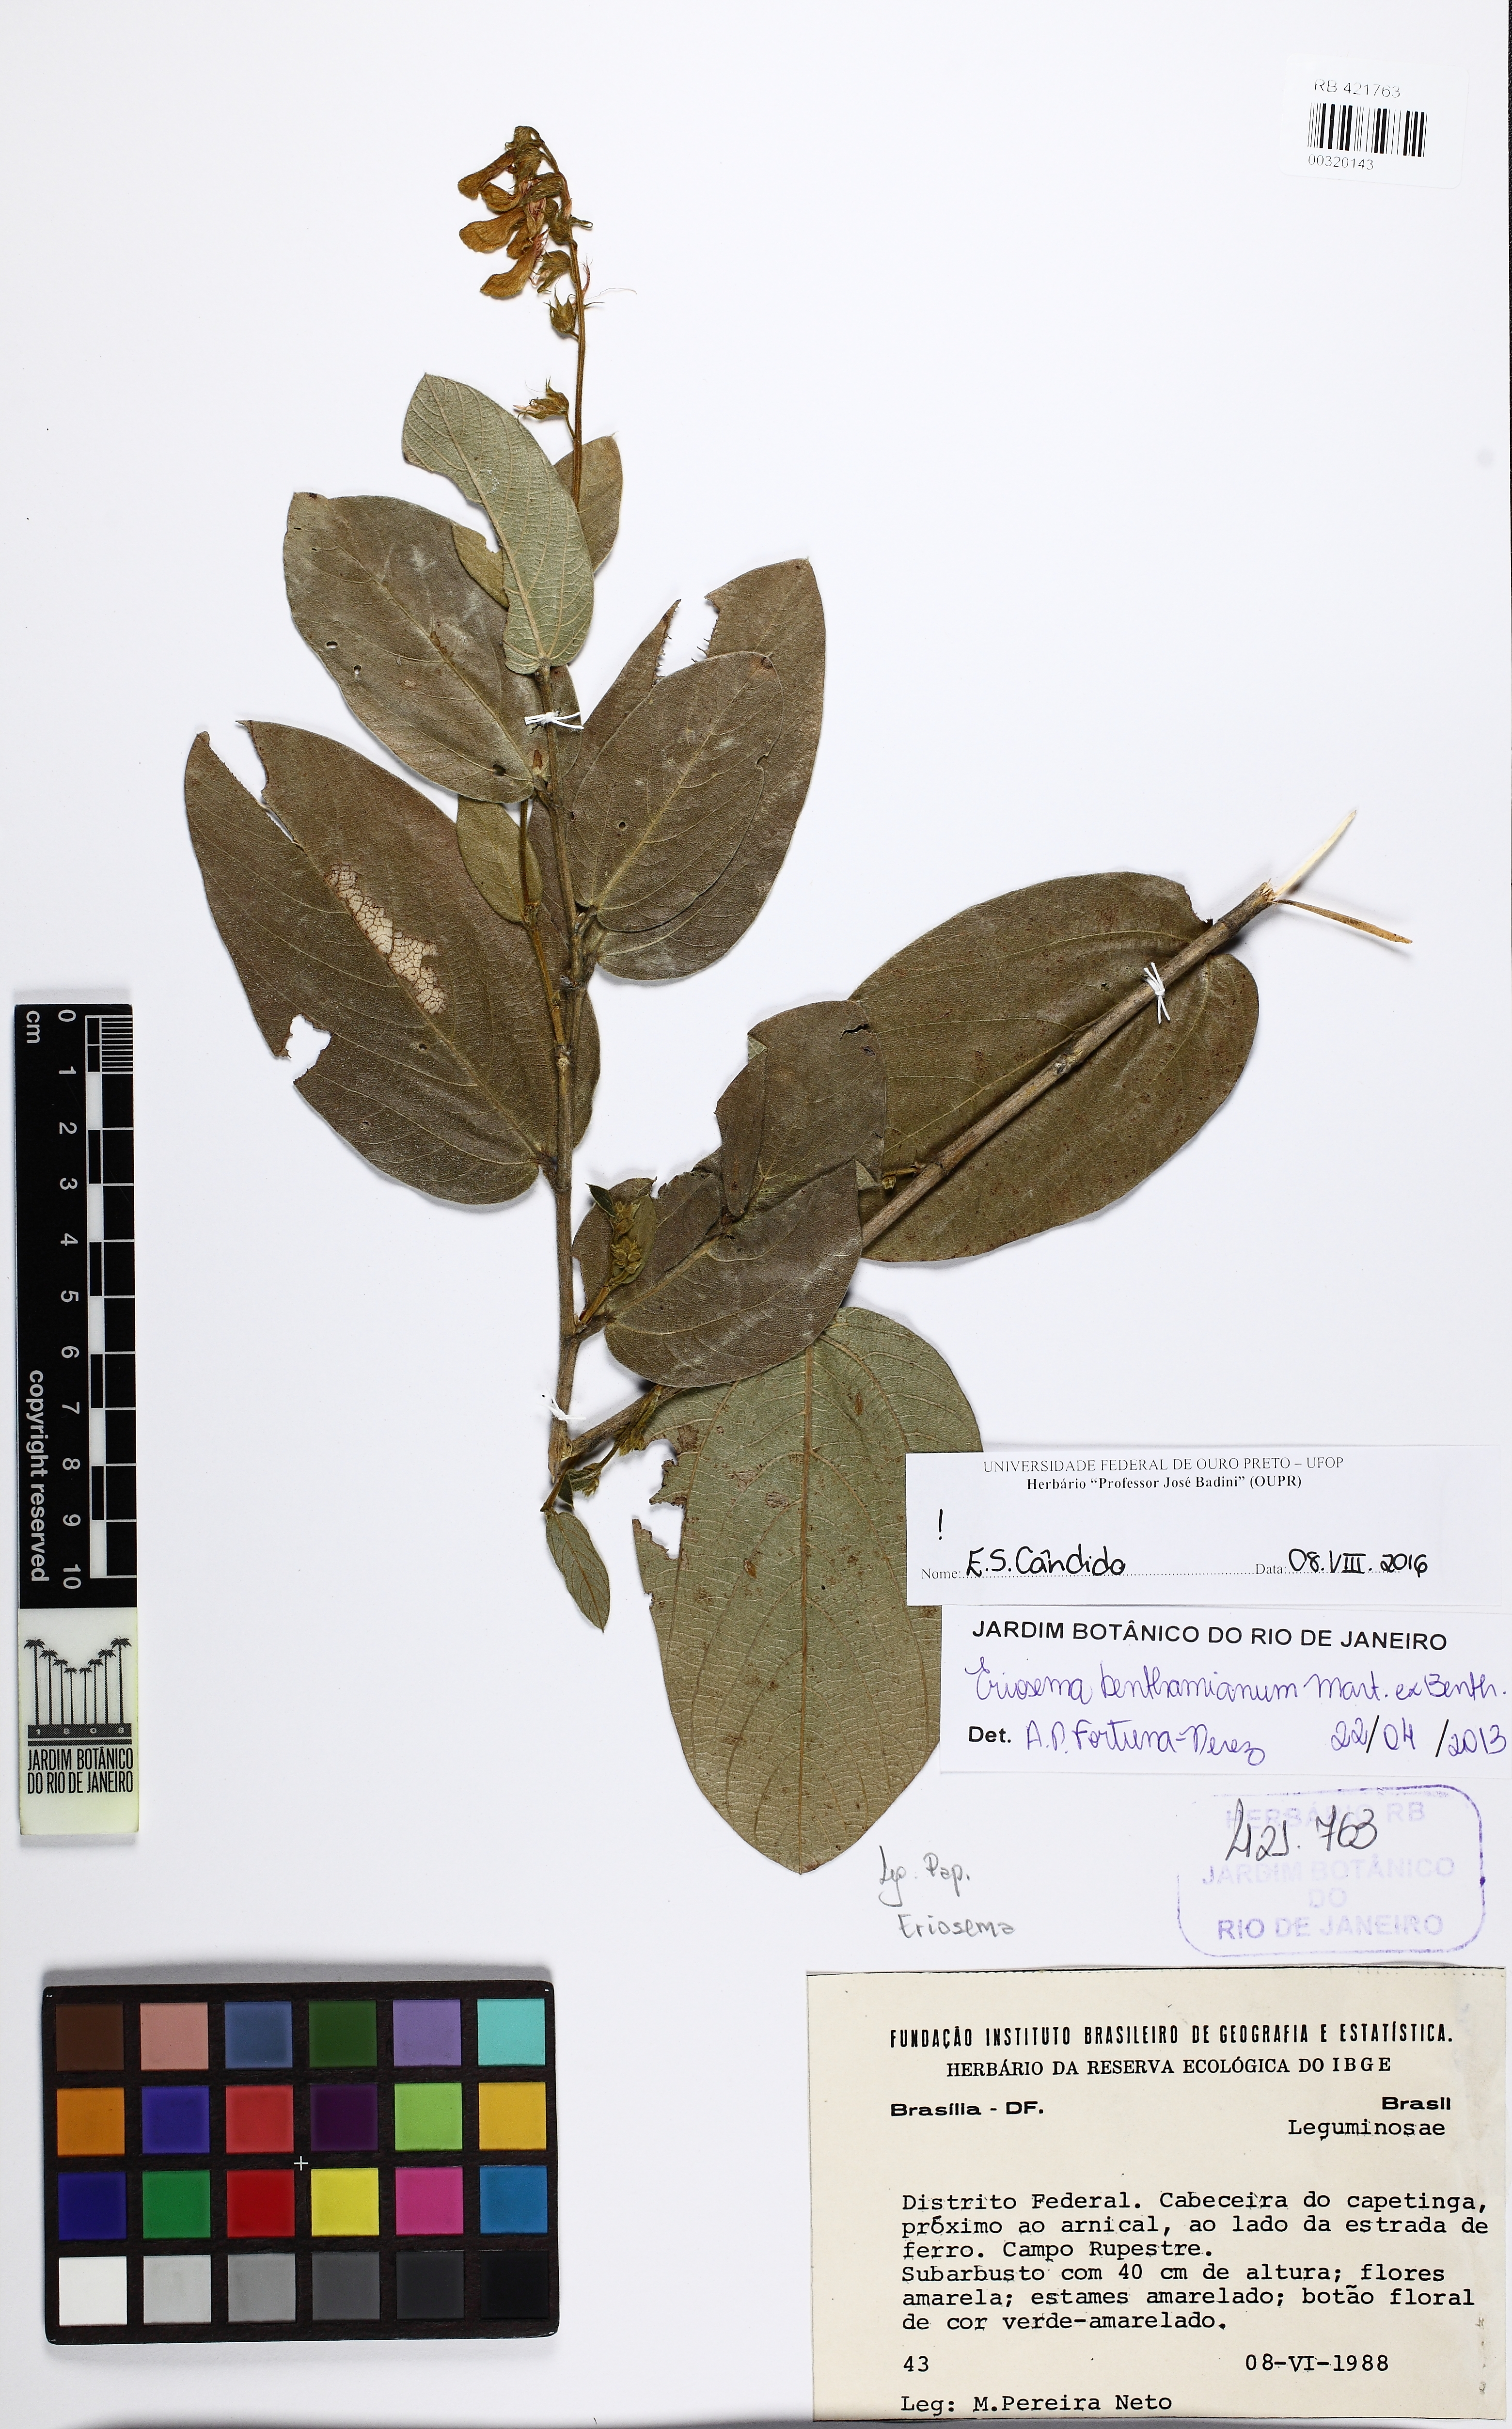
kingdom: Plantae
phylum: Tracheophyta
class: Magnoliopsida
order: Fabales
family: Fabaceae
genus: Eriosema
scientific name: Eriosema benthamianum
